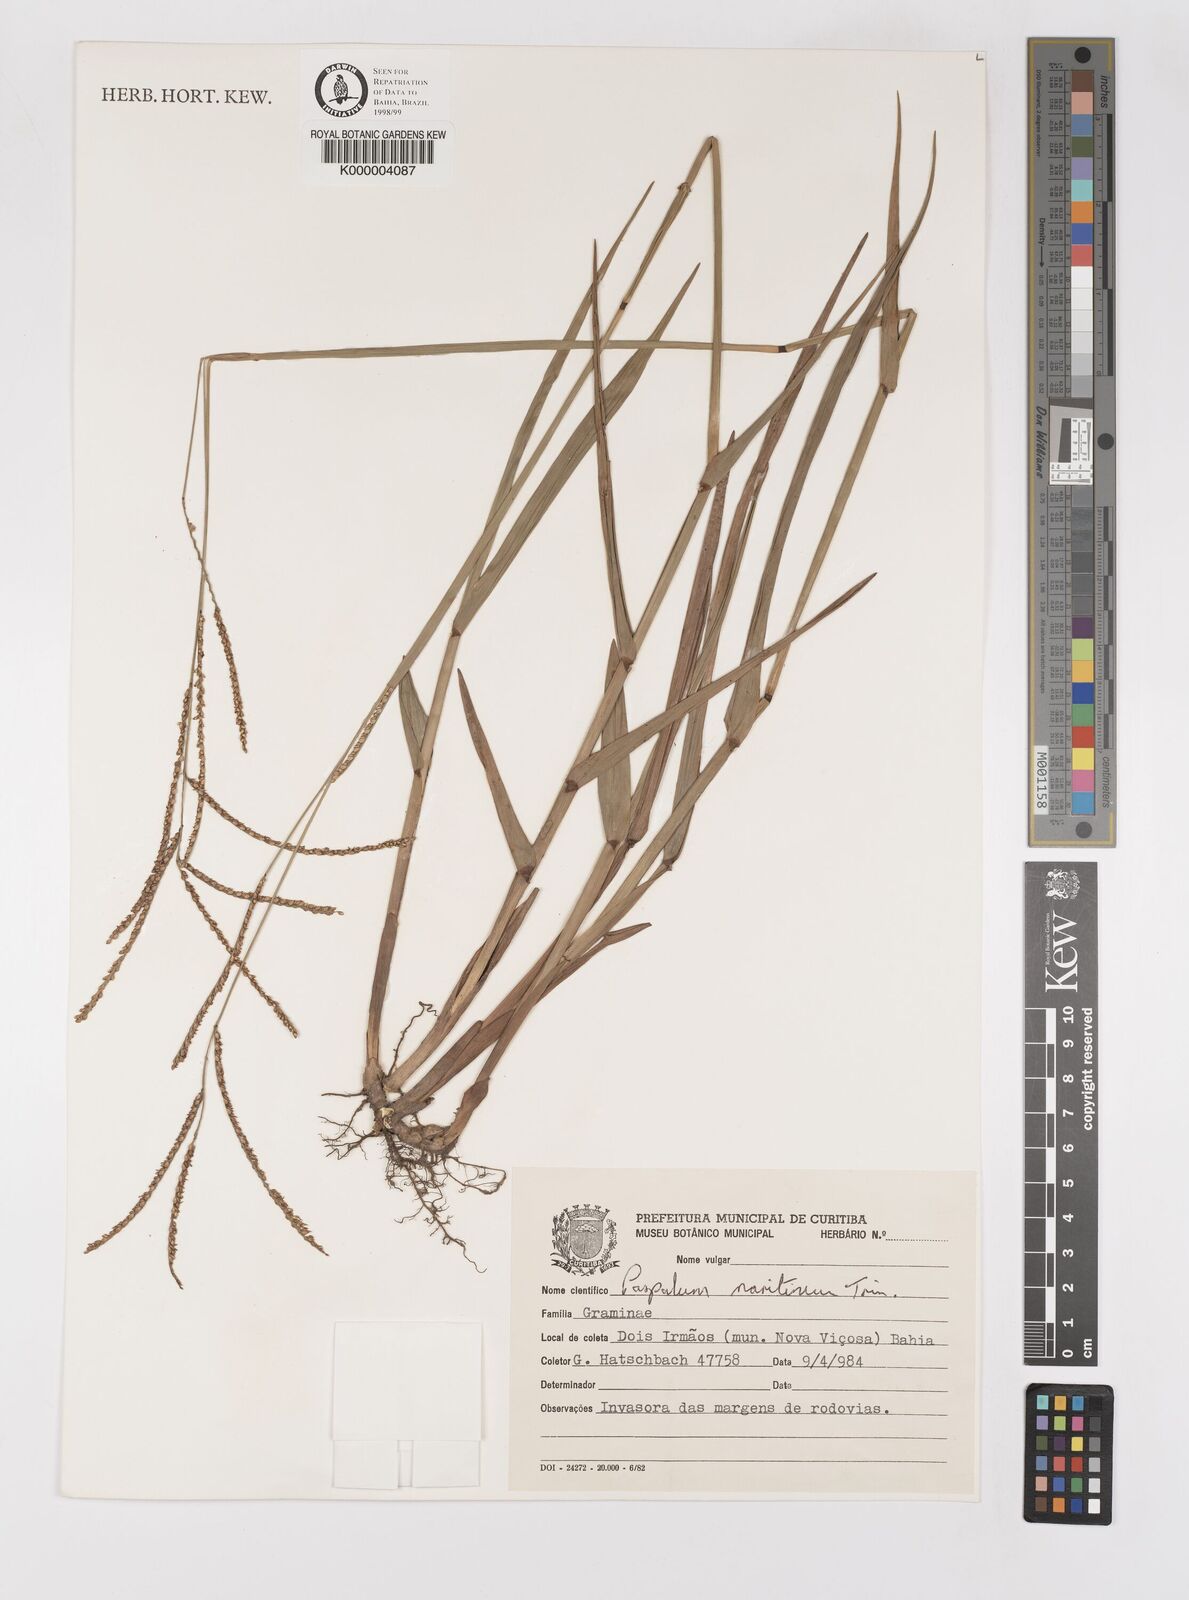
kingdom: Plantae
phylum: Tracheophyta
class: Liliopsida
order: Poales
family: Poaceae
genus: Paspalum
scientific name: Paspalum maritimum
